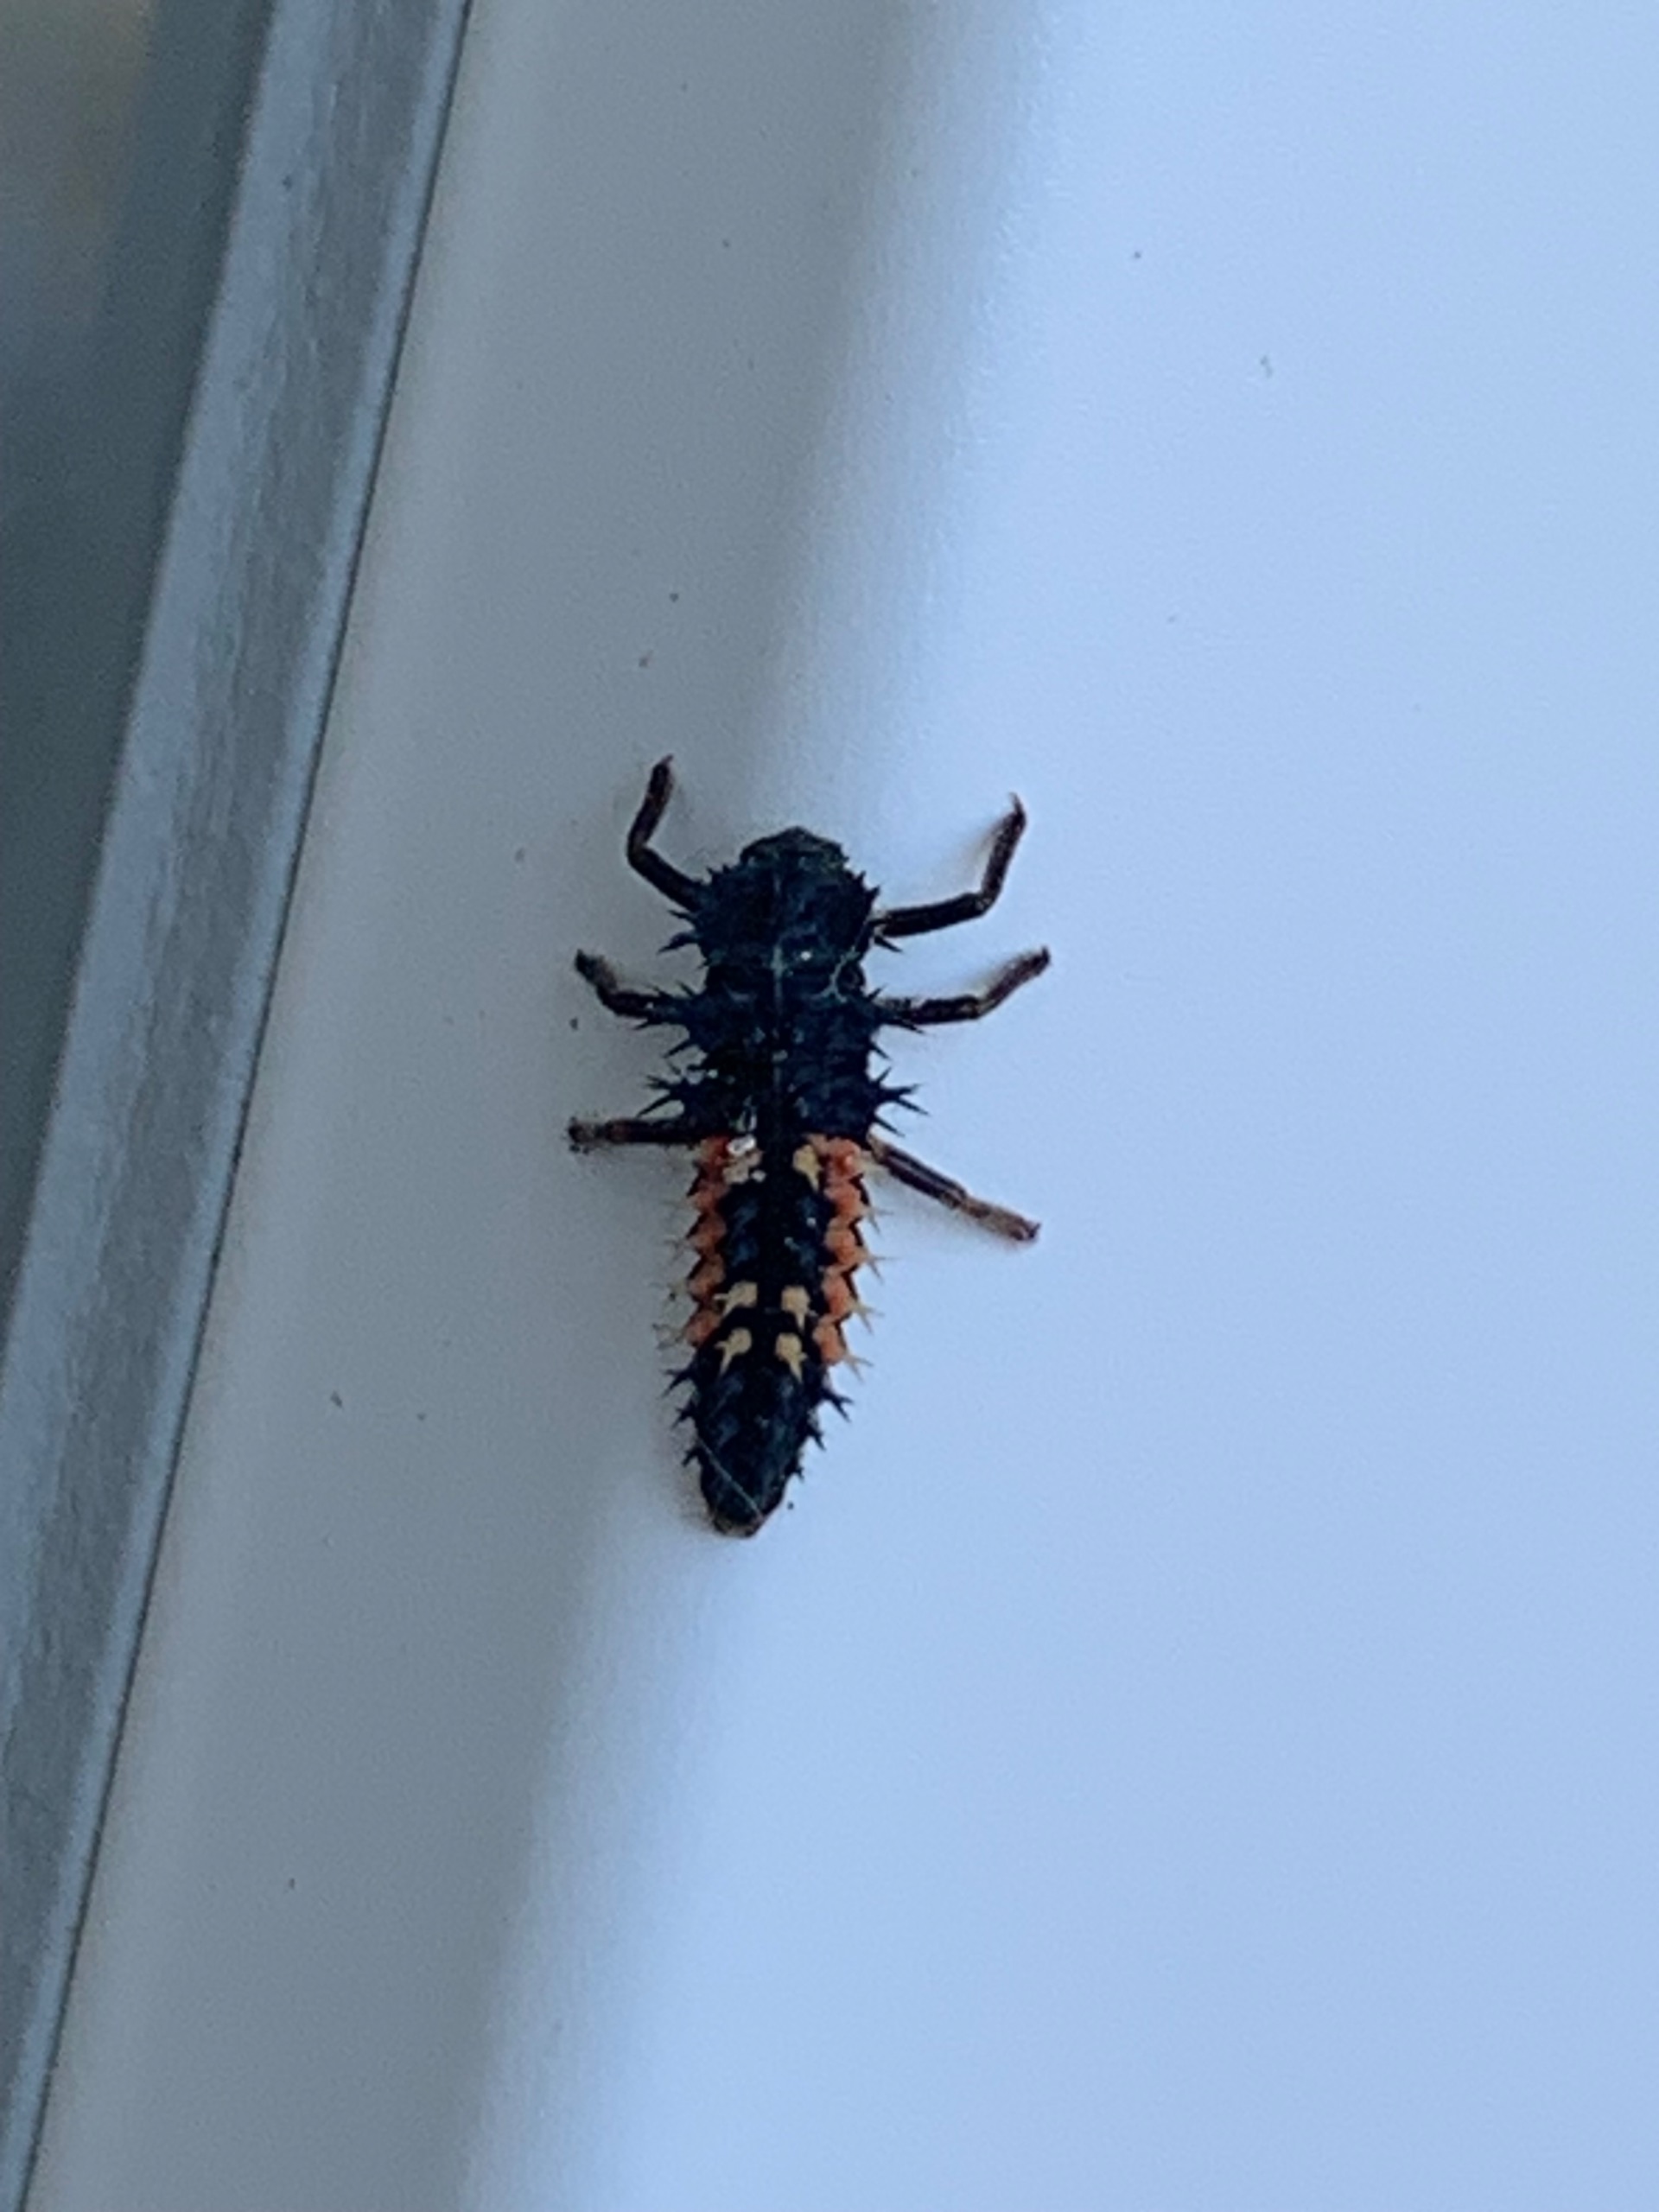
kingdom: Animalia
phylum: Arthropoda
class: Insecta
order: Coleoptera
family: Coccinellidae
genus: Harmonia
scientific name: Harmonia axyridis
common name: Harlekinmariehøne
